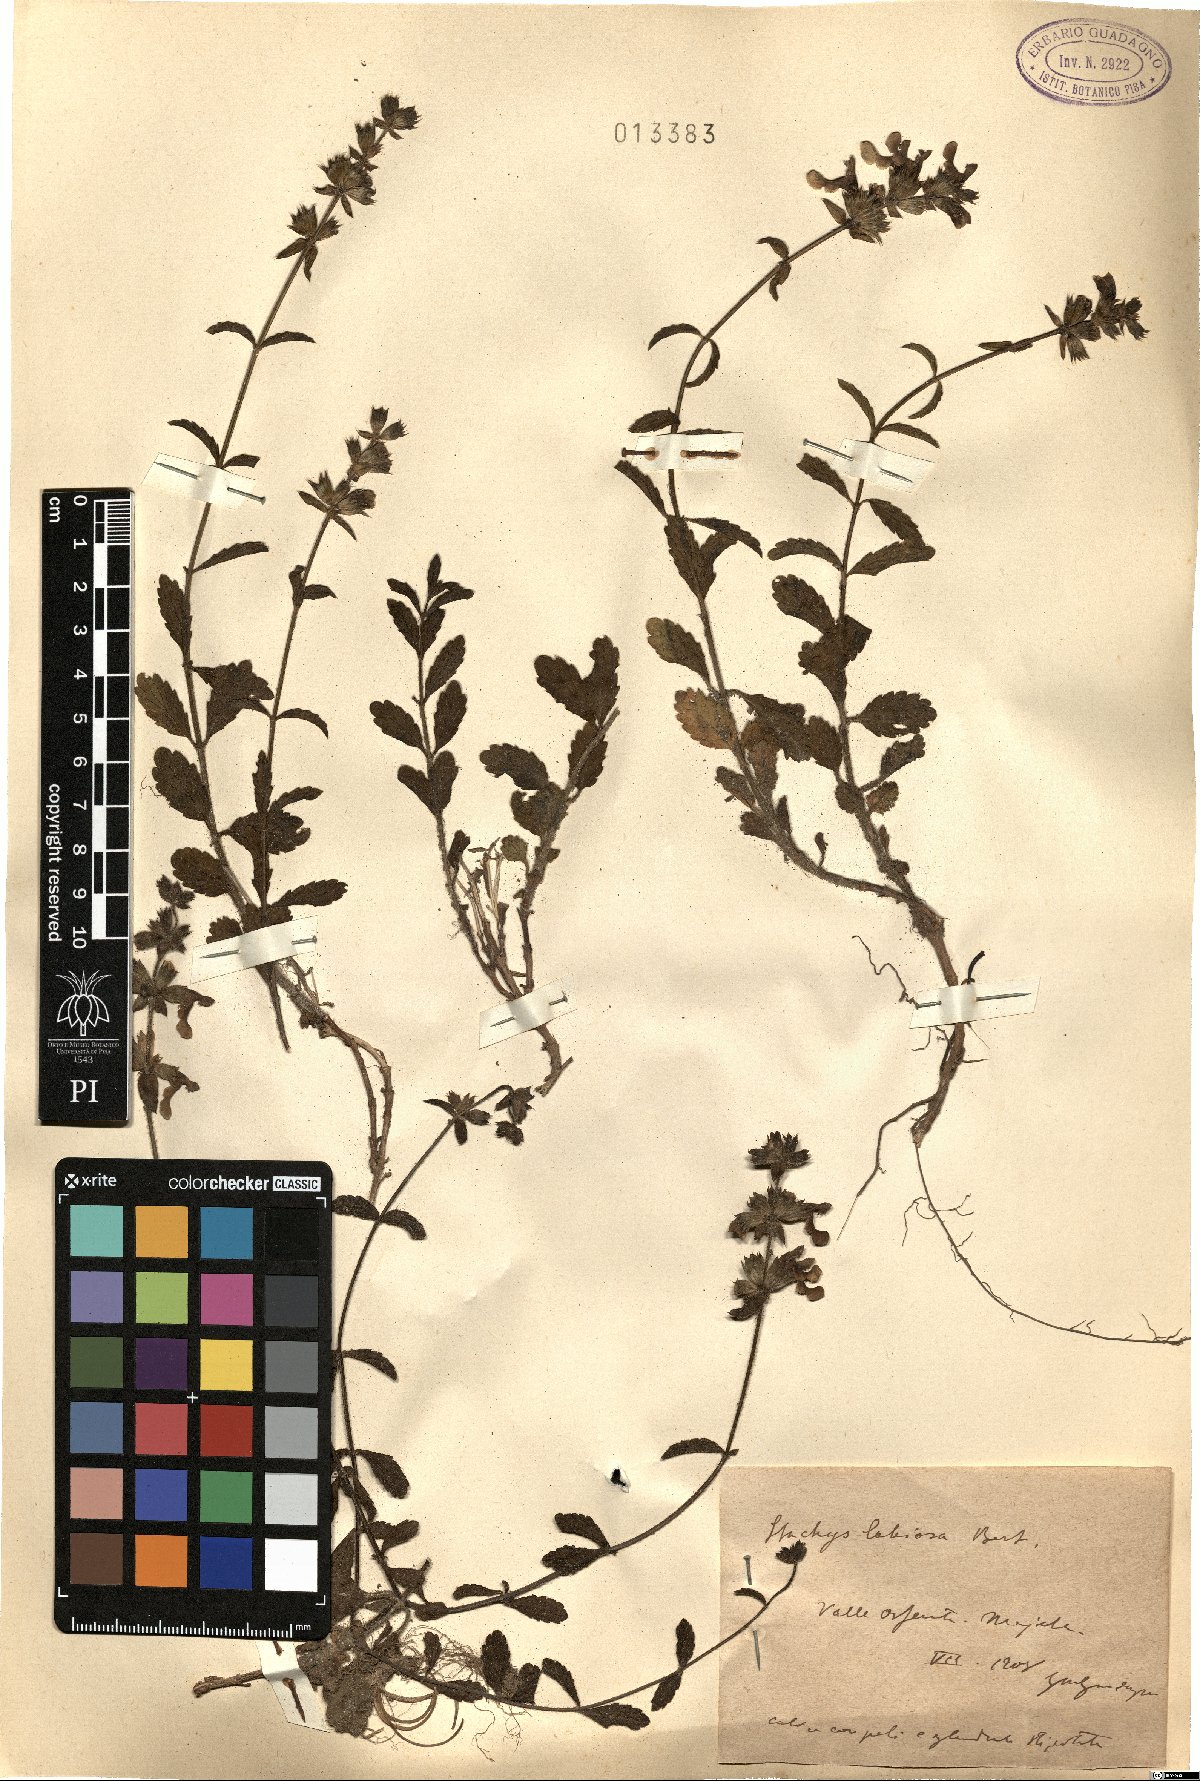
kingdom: Plantae
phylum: Tracheophyta
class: Magnoliopsida
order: Lamiales
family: Lamiaceae
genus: Stachys
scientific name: Stachys recta
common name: Perennial yellow-woundwort
